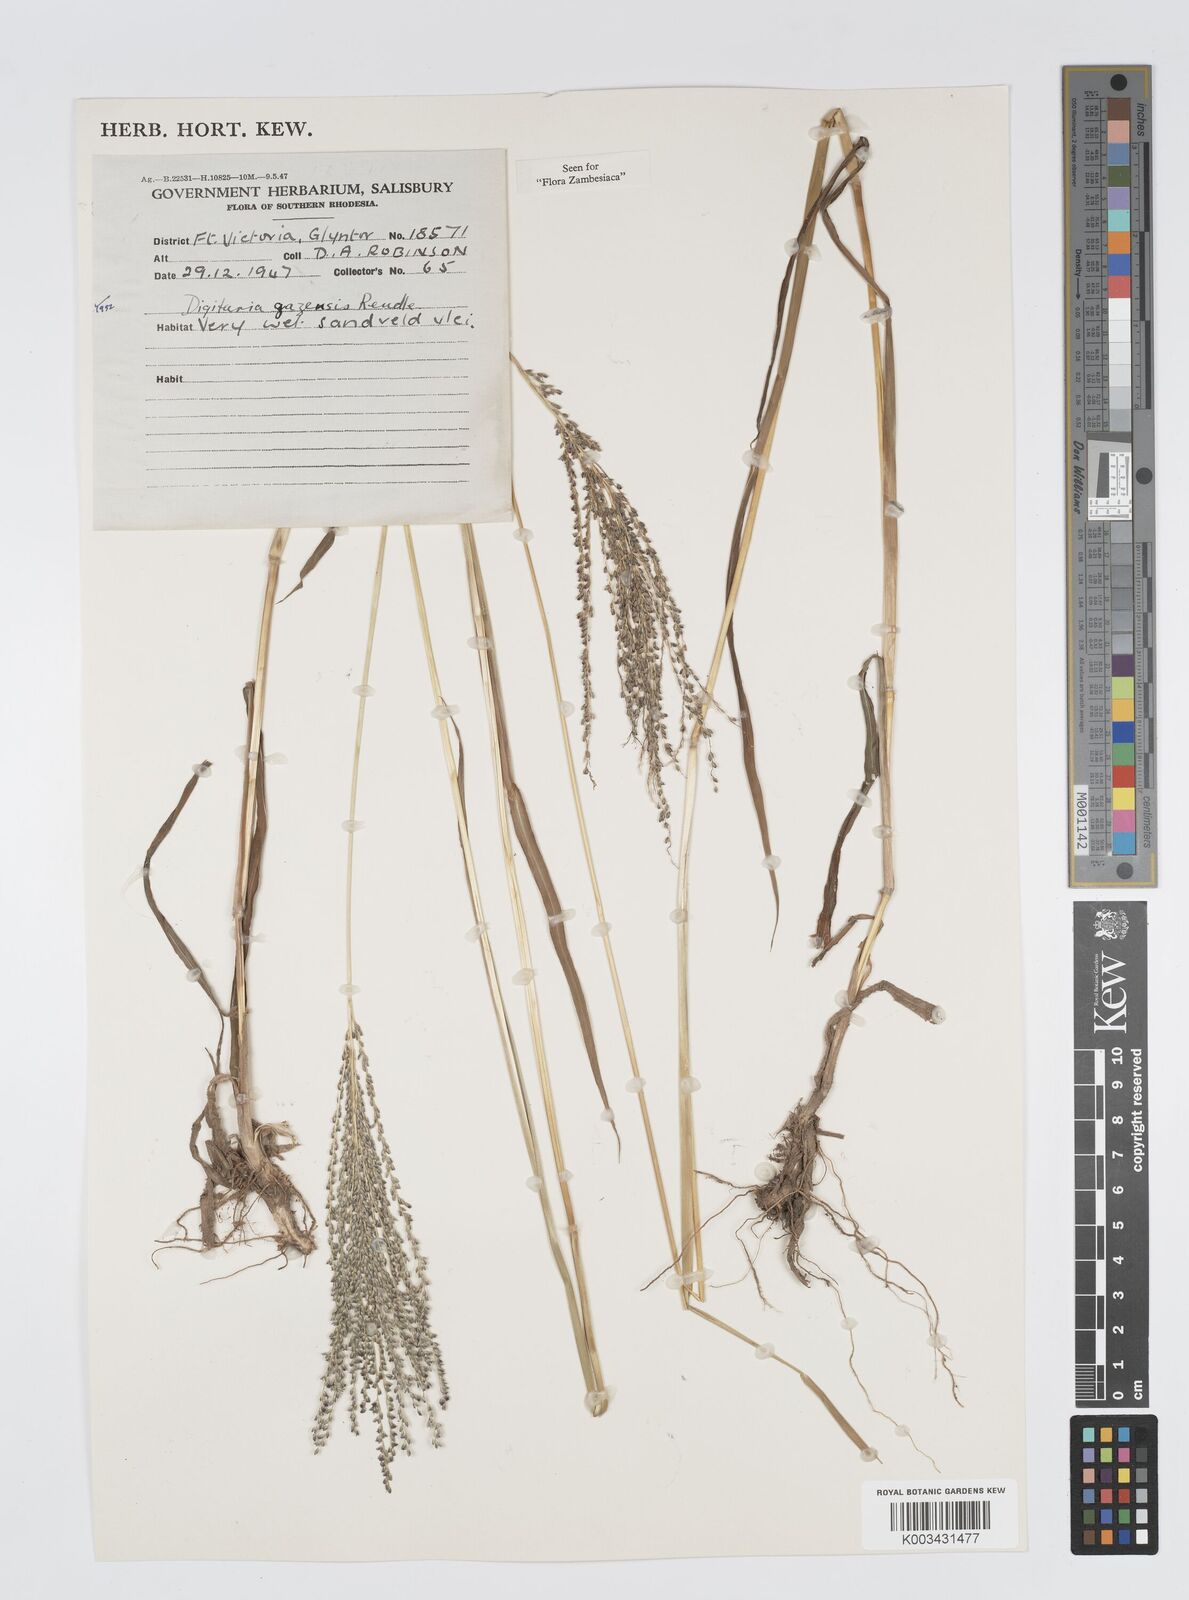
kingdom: Plantae
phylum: Tracheophyta
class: Liliopsida
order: Poales
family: Poaceae
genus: Digitaria
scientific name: Digitaria gazensis
